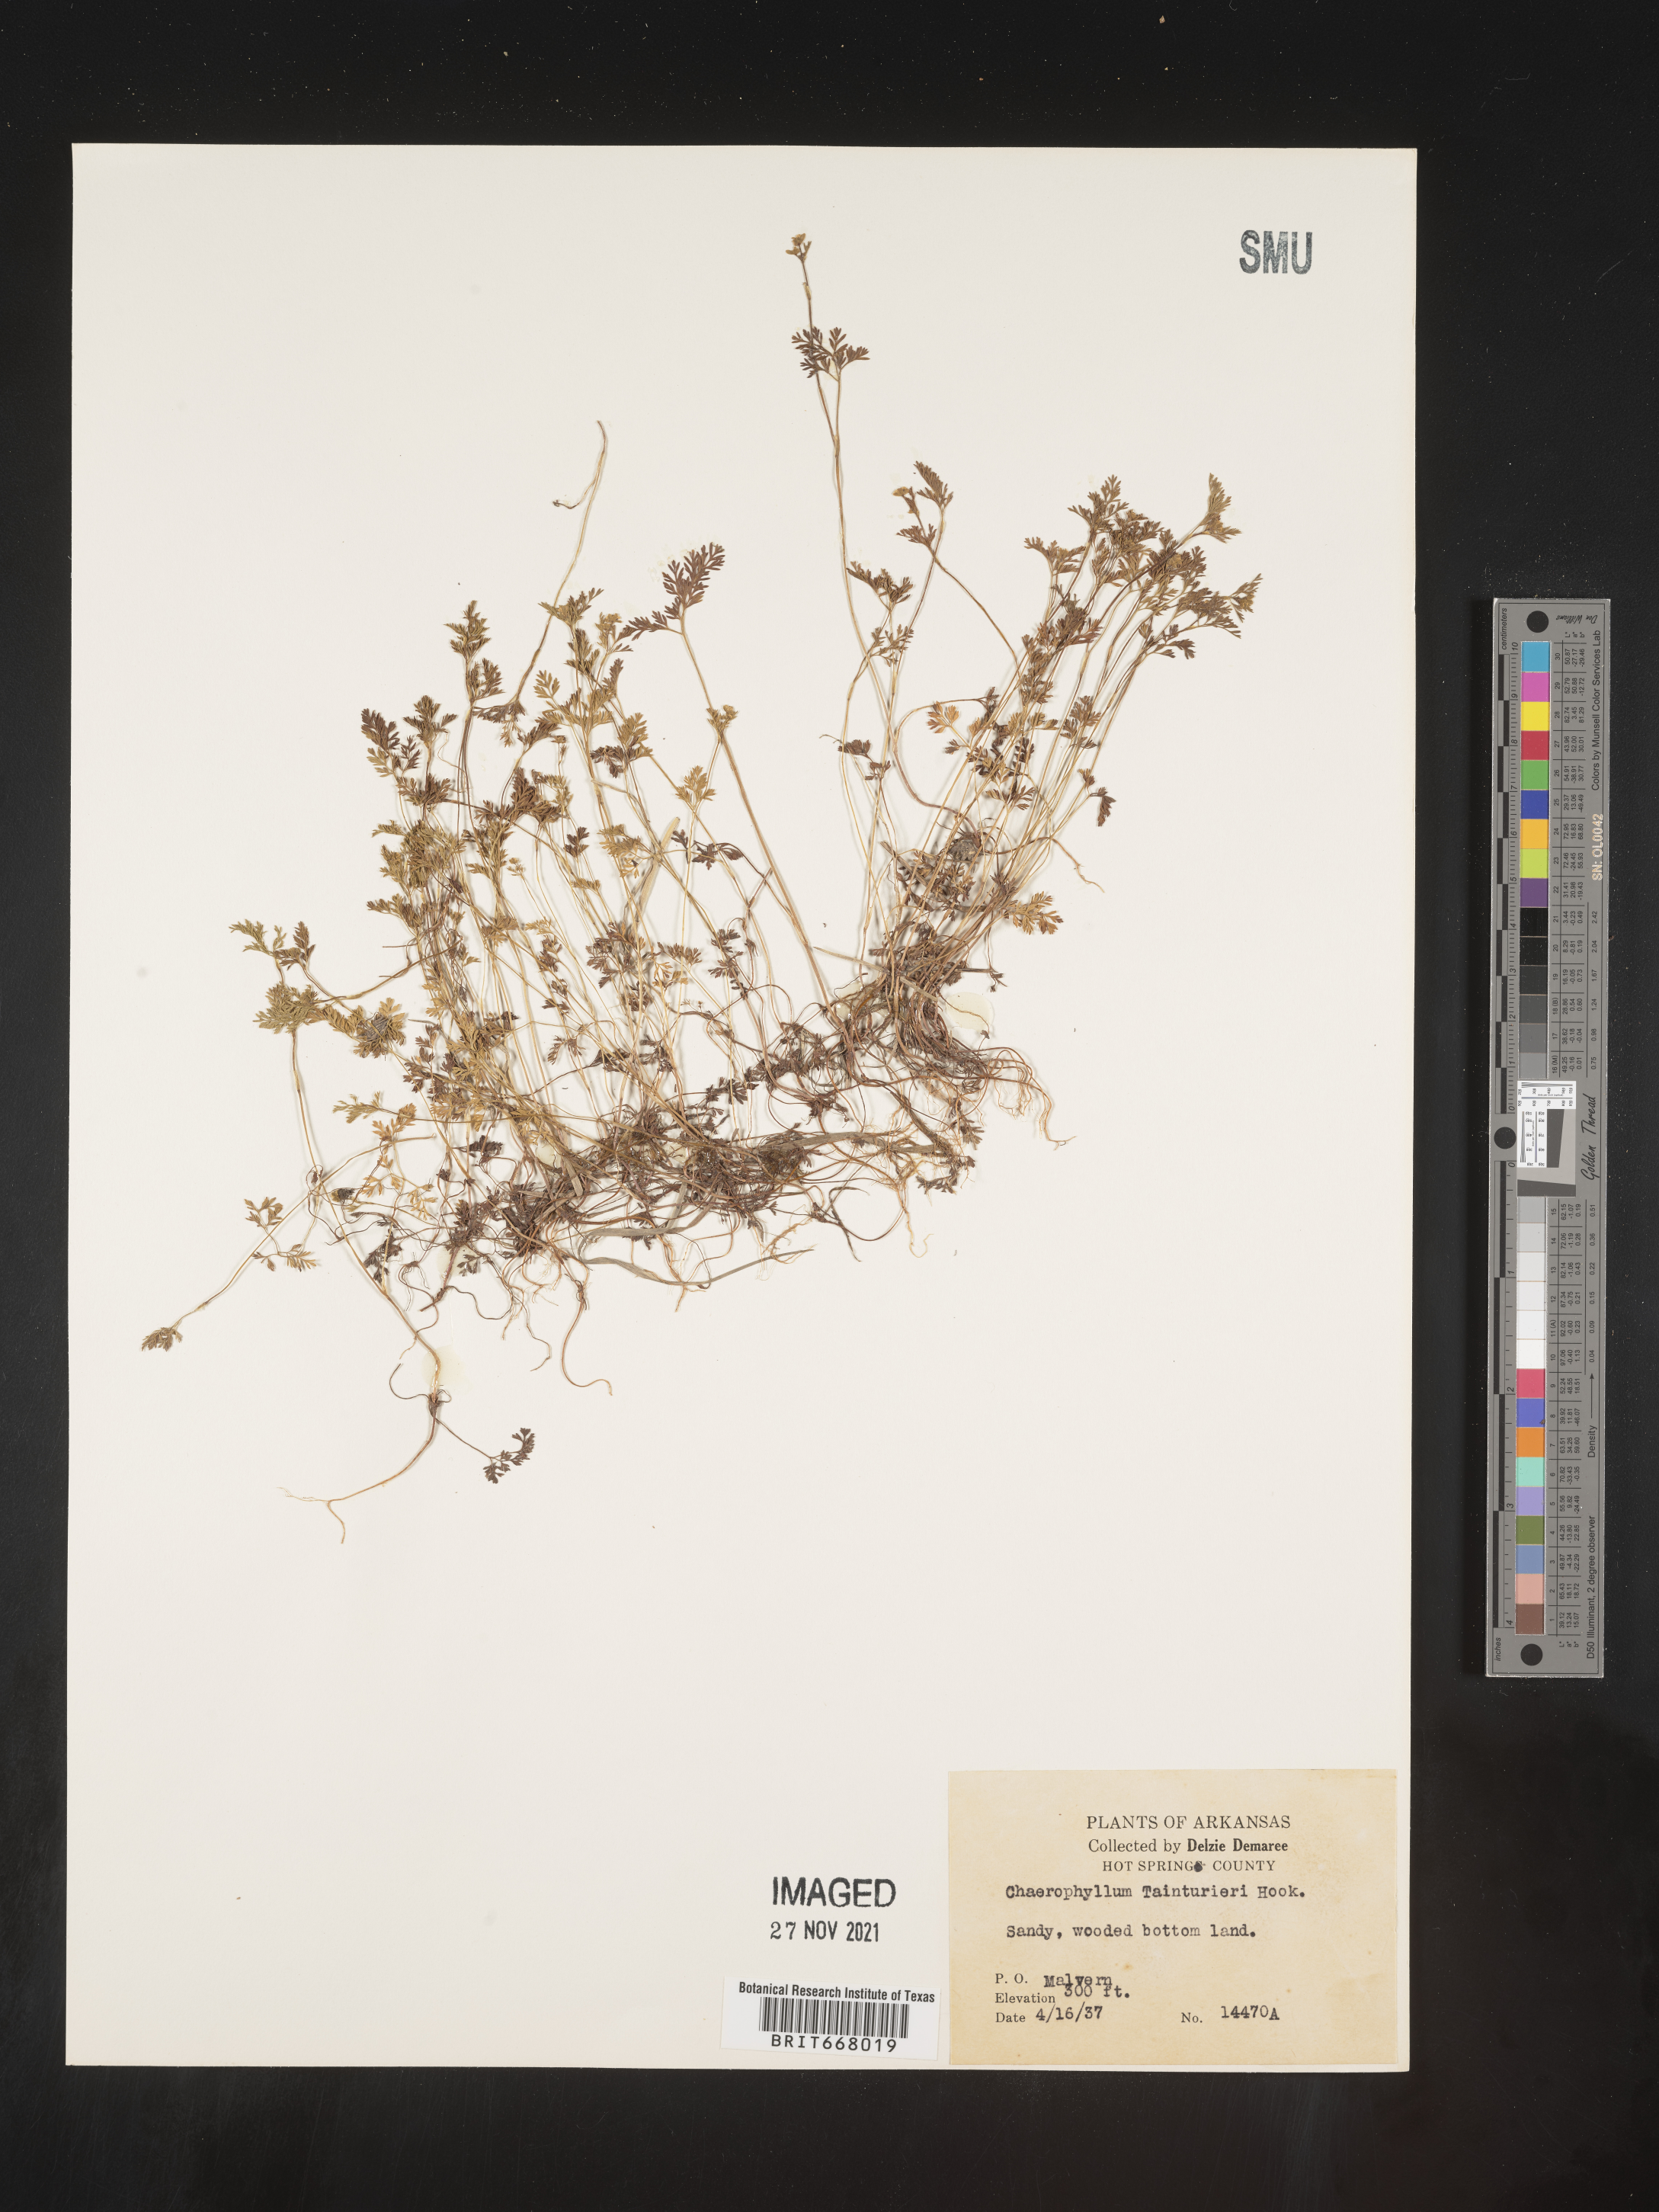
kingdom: Plantae
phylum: Tracheophyta
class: Magnoliopsida
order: Apiales
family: Apiaceae
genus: Chaerophyllum
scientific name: Chaerophyllum tainturieri
